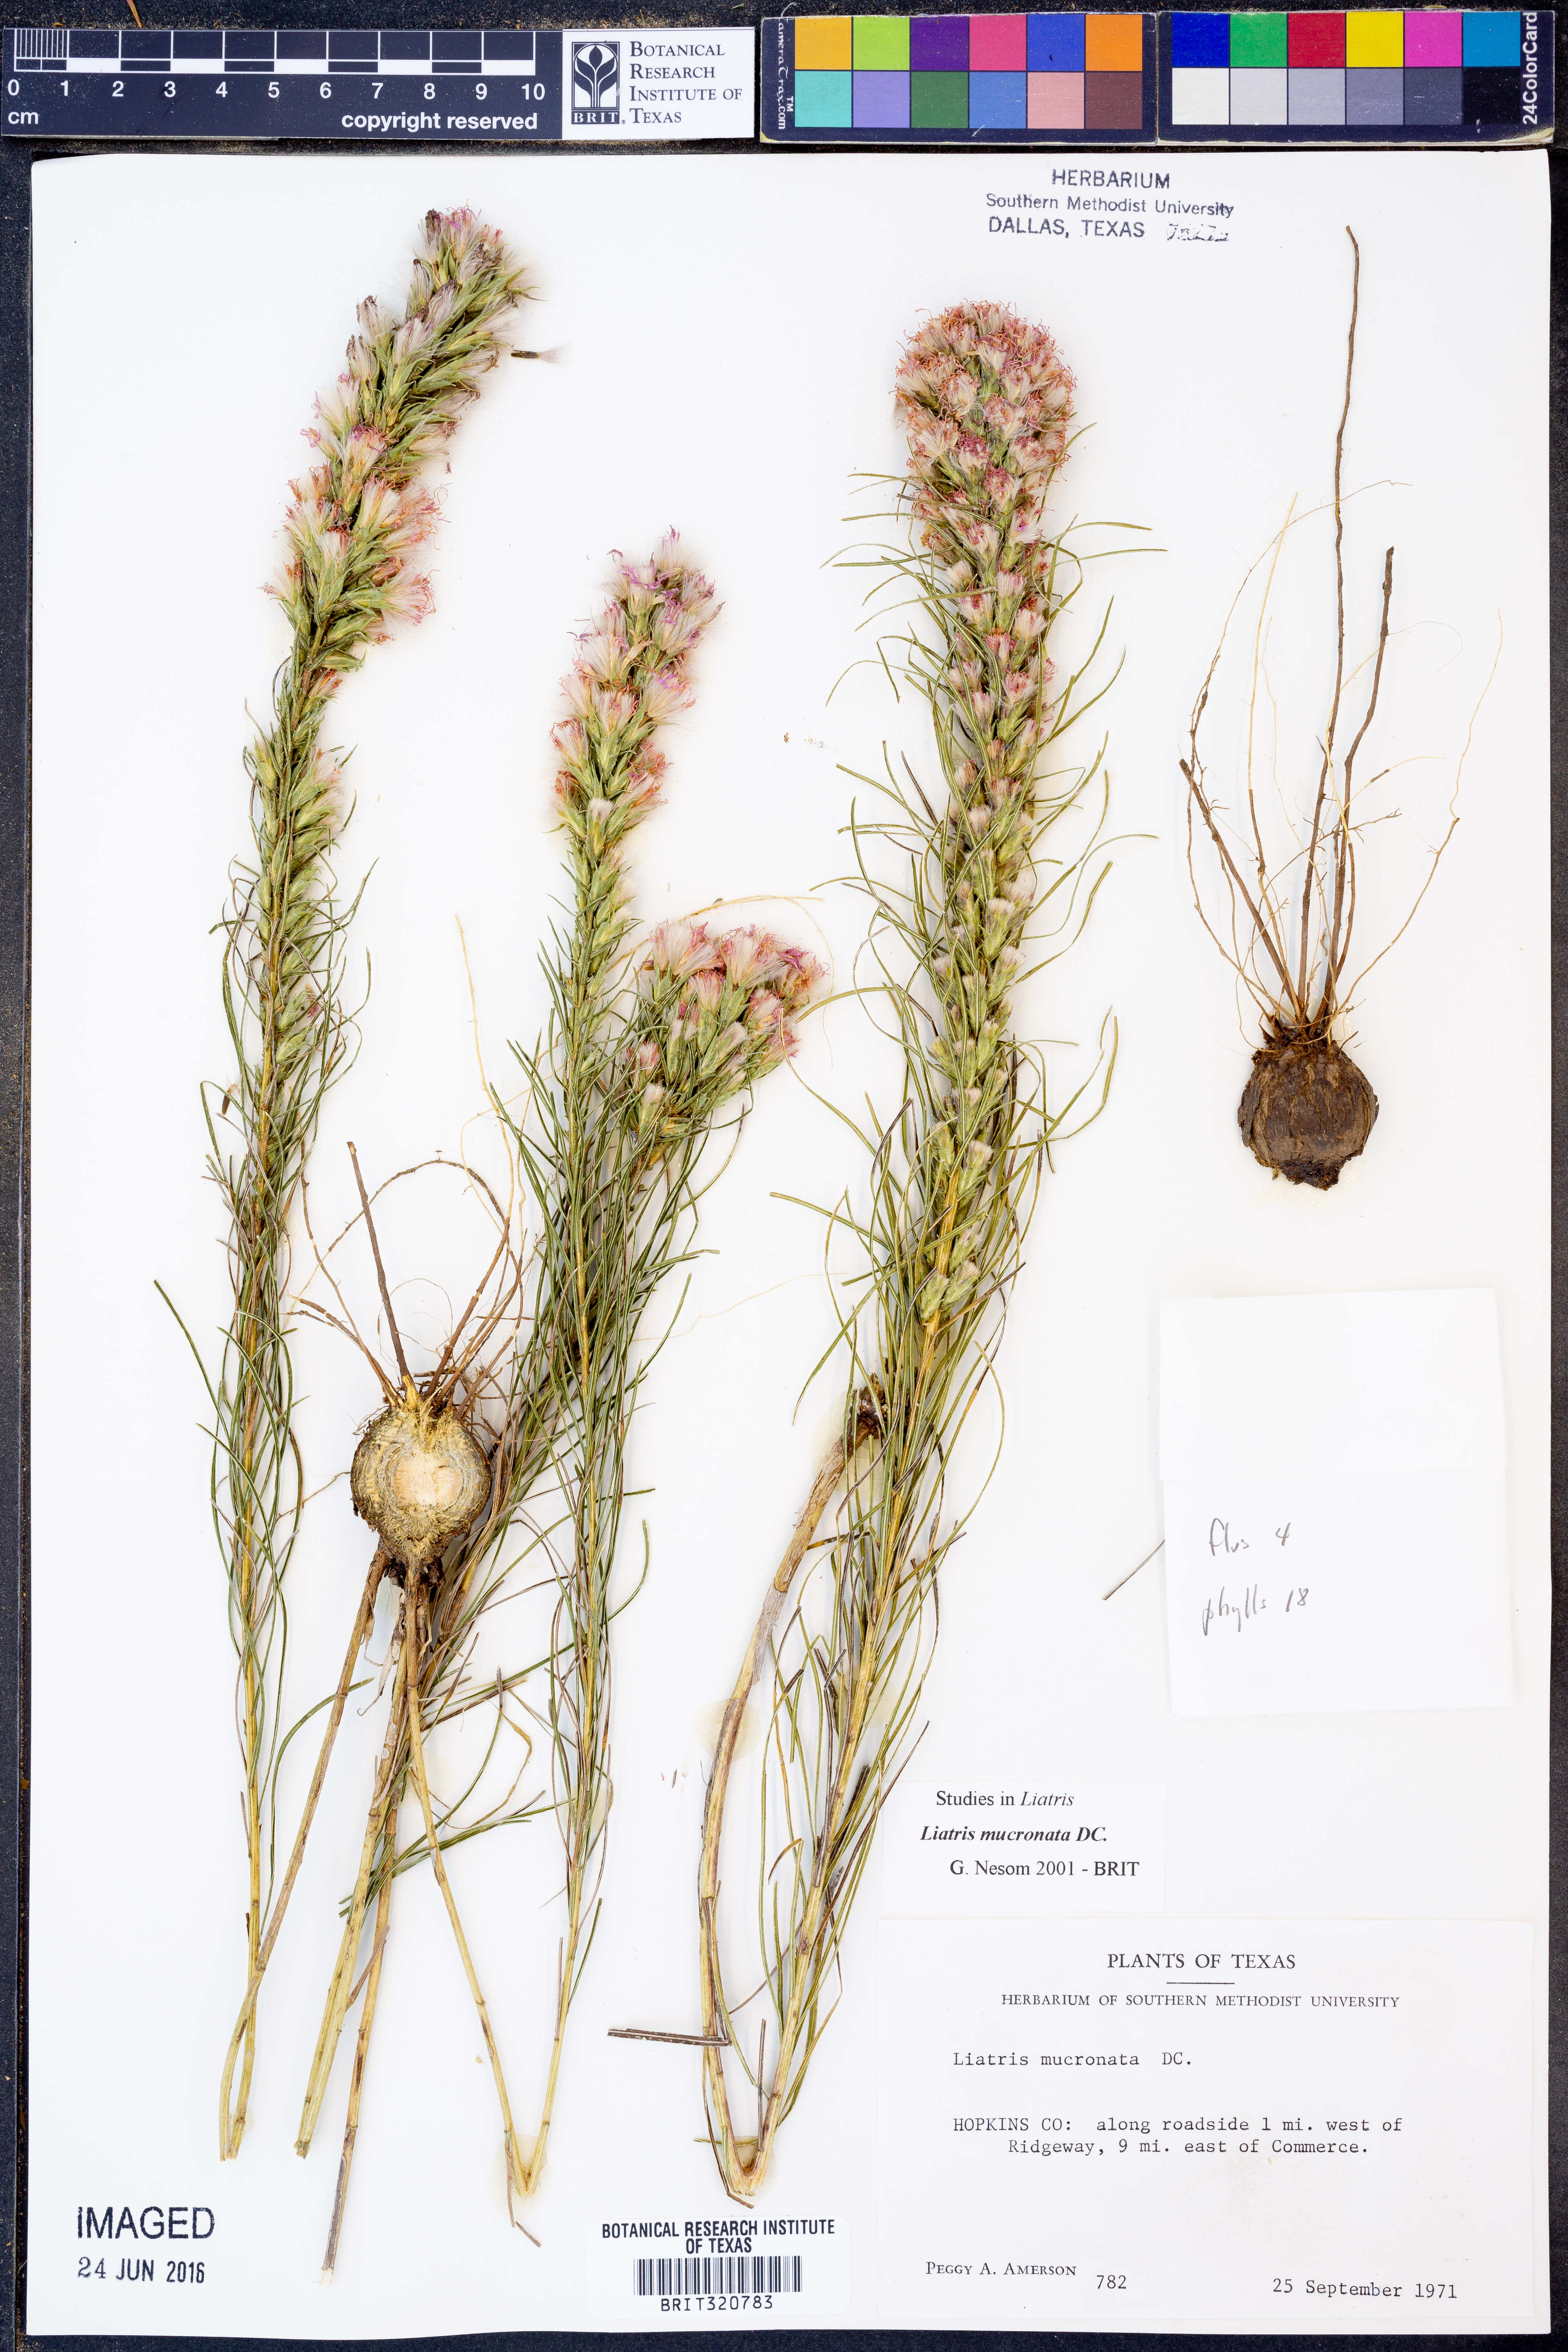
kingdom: Plantae
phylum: Tracheophyta
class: Magnoliopsida
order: Asterales
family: Asteraceae
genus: Liatris
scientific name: Liatris mucronata
